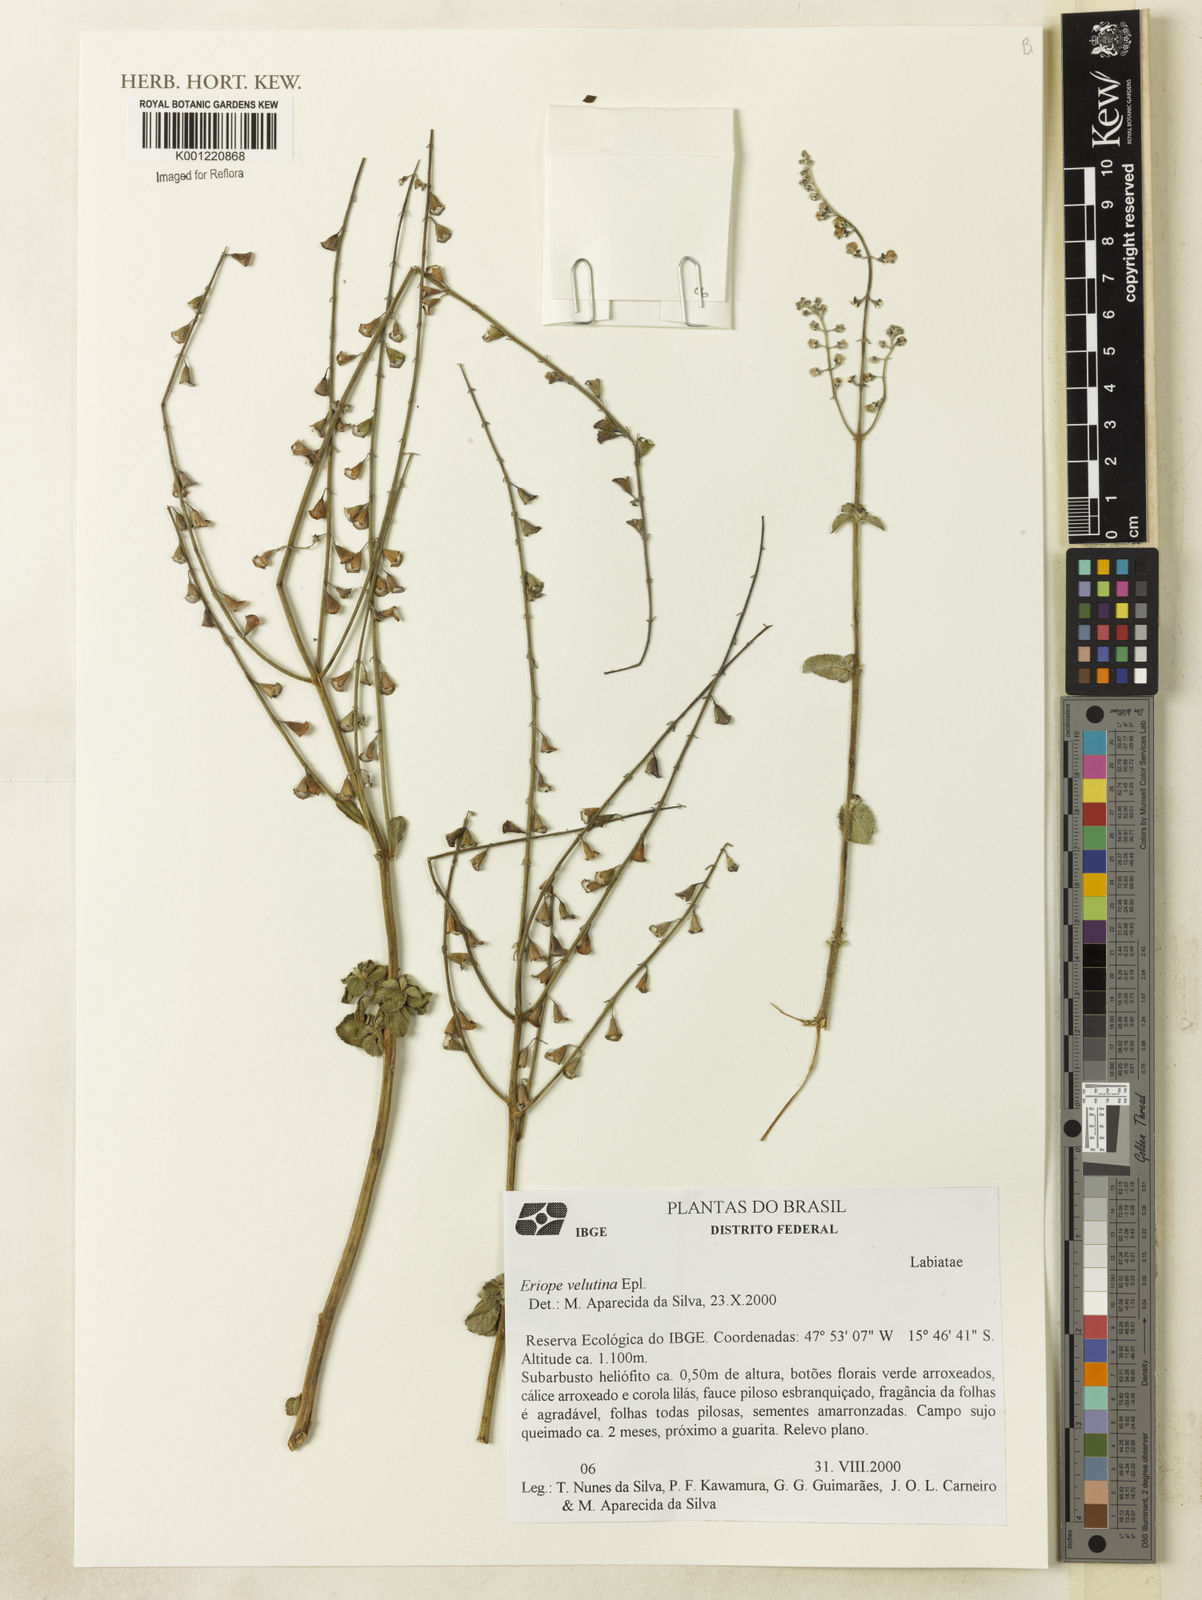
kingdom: Plantae
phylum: Tracheophyta
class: Magnoliopsida
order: Lamiales
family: Lamiaceae
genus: Eriope
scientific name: Eriope velutina
